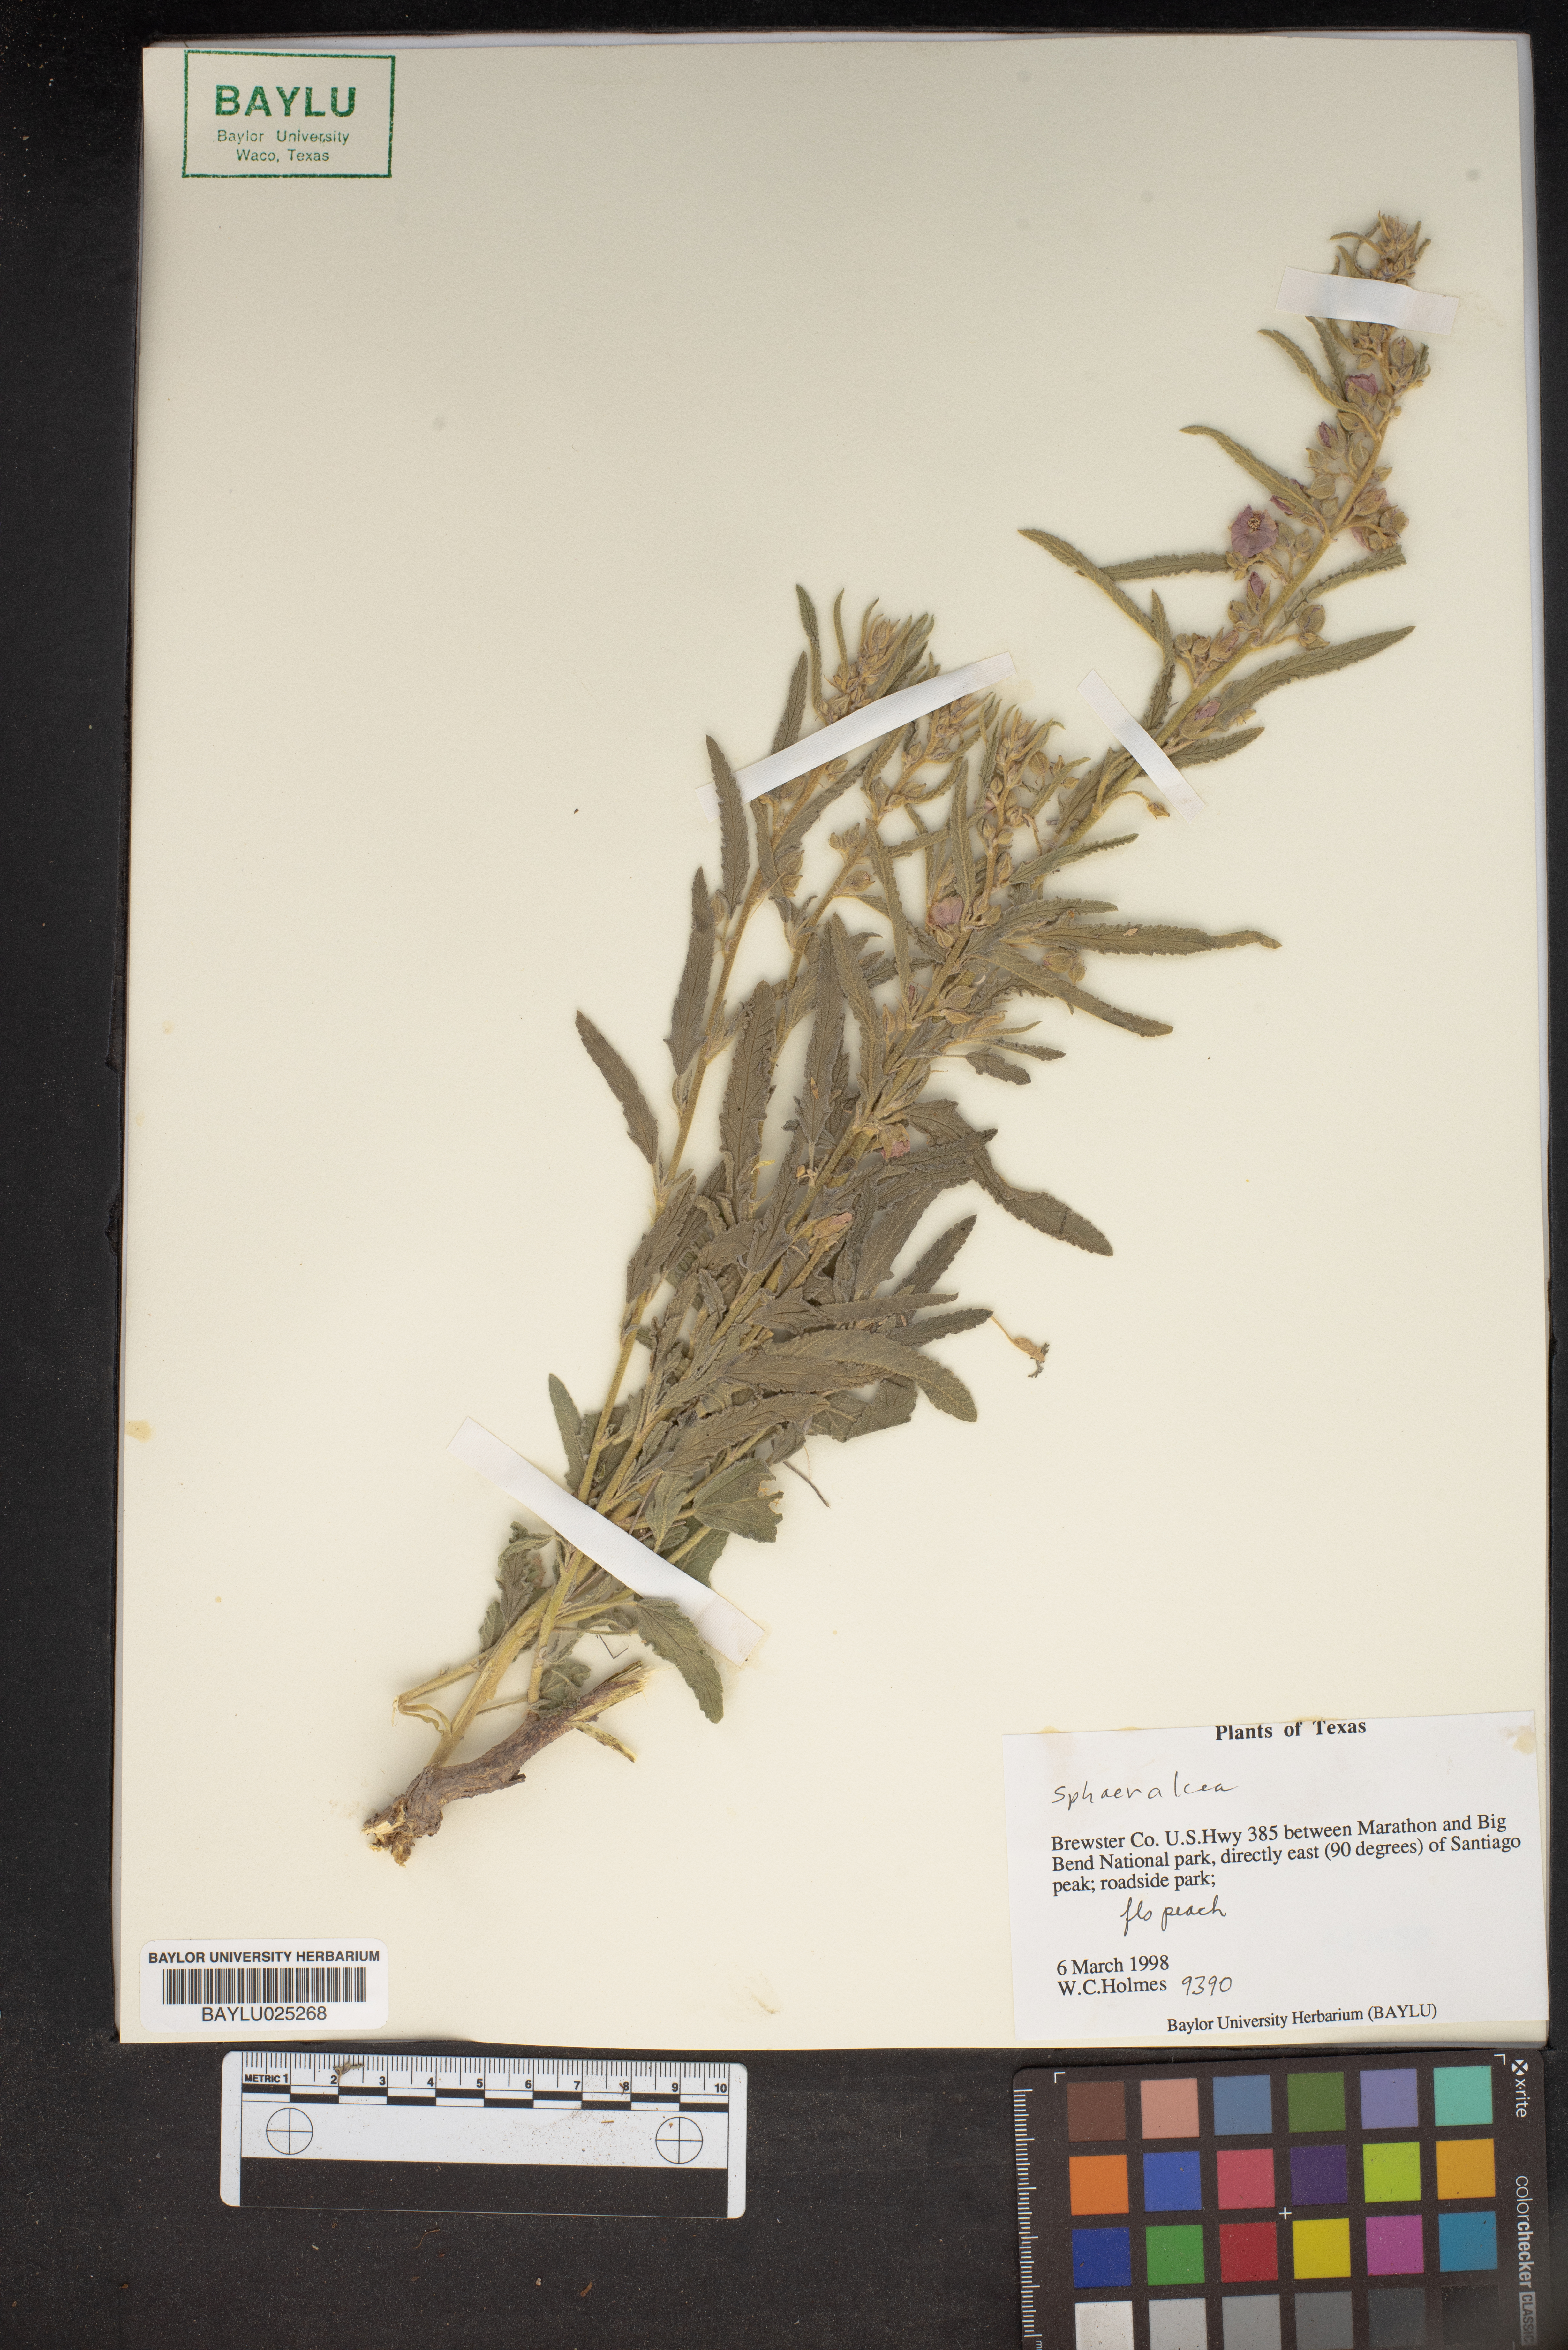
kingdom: Plantae
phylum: Tracheophyta
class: Magnoliopsida
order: Malvales
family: Malvaceae
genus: Sphaeralcea
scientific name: Sphaeralcea
